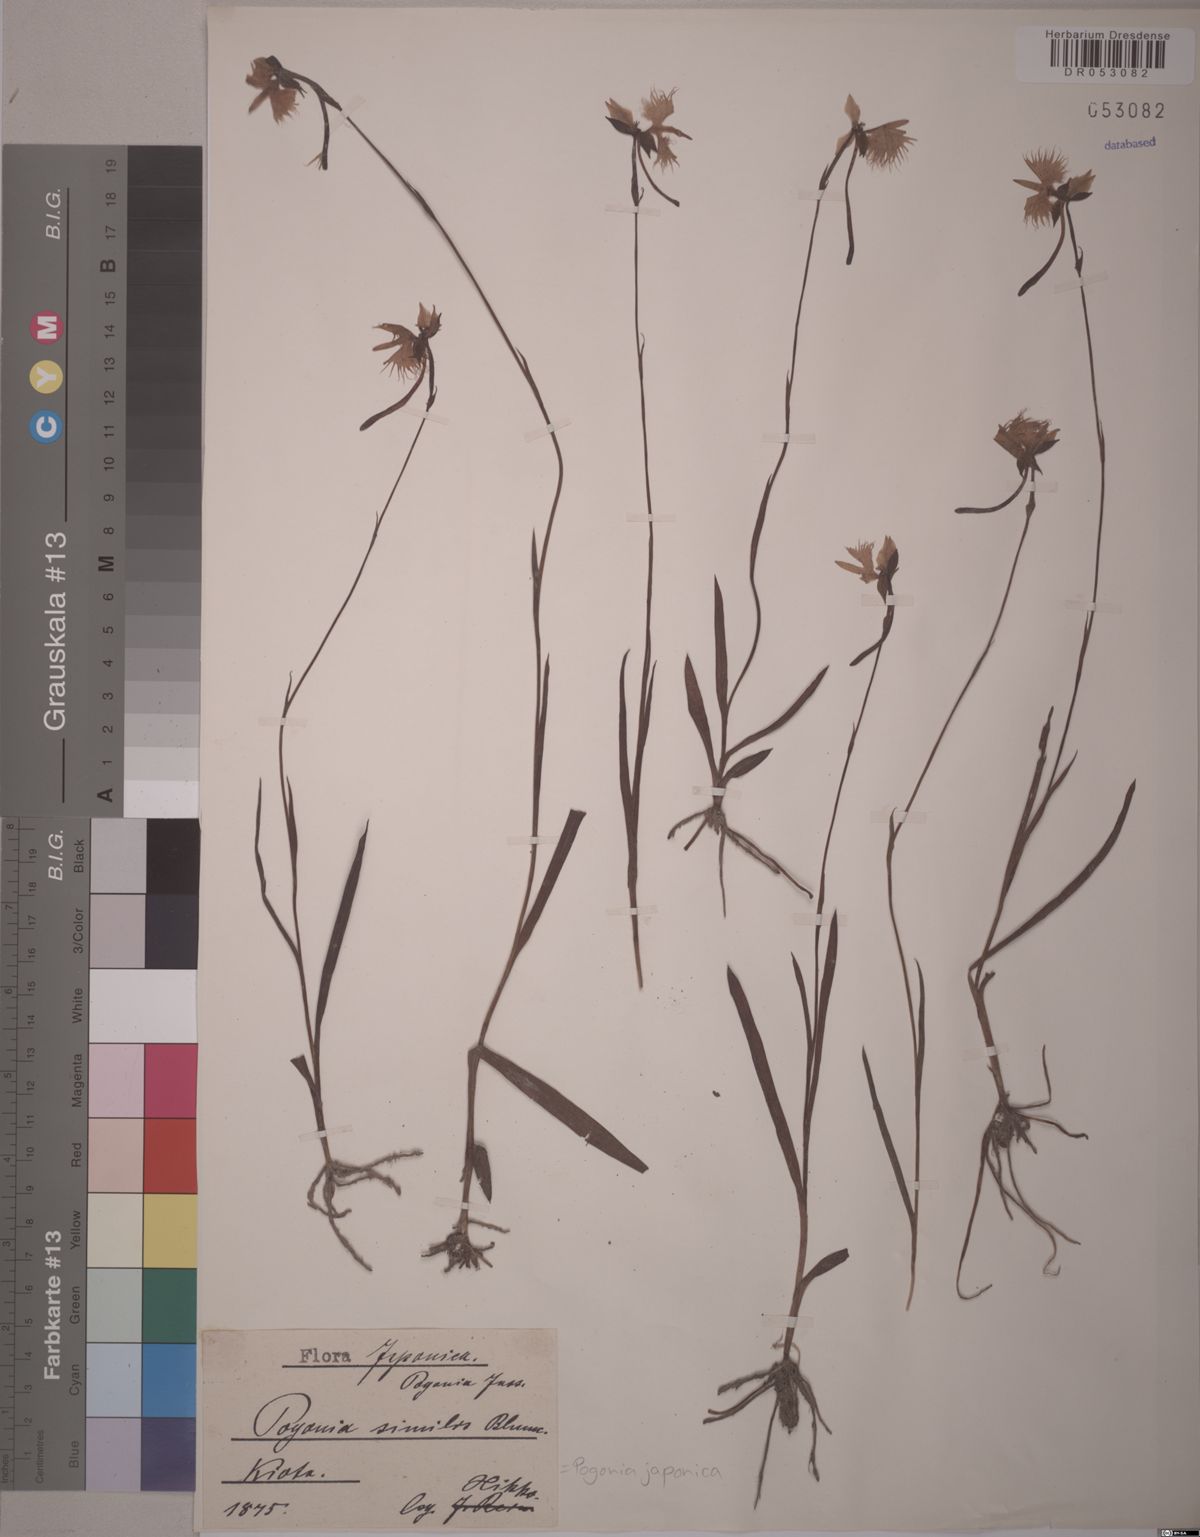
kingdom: Plantae
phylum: Tracheophyta
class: Liliopsida
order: Asparagales
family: Orchidaceae
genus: Pogonia
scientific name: Pogonia japonica
